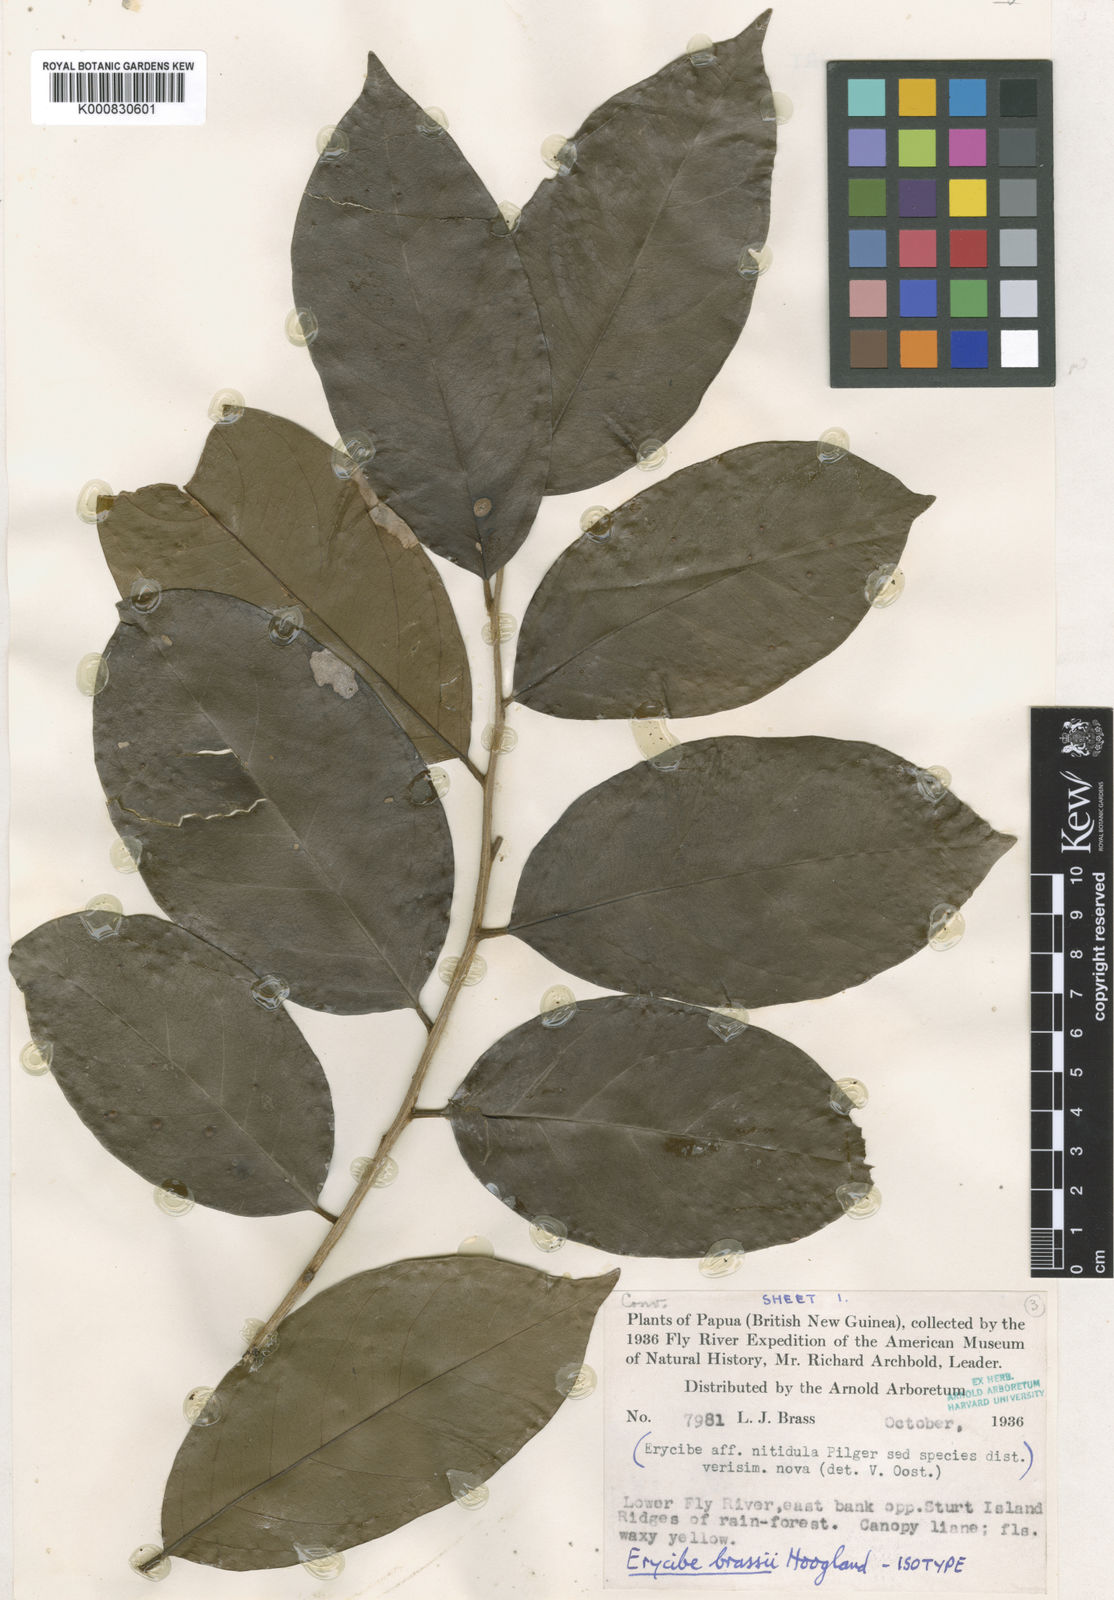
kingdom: Plantae
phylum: Tracheophyta
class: Magnoliopsida
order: Solanales
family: Convolvulaceae
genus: Erycibe
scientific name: Erycibe brassii
